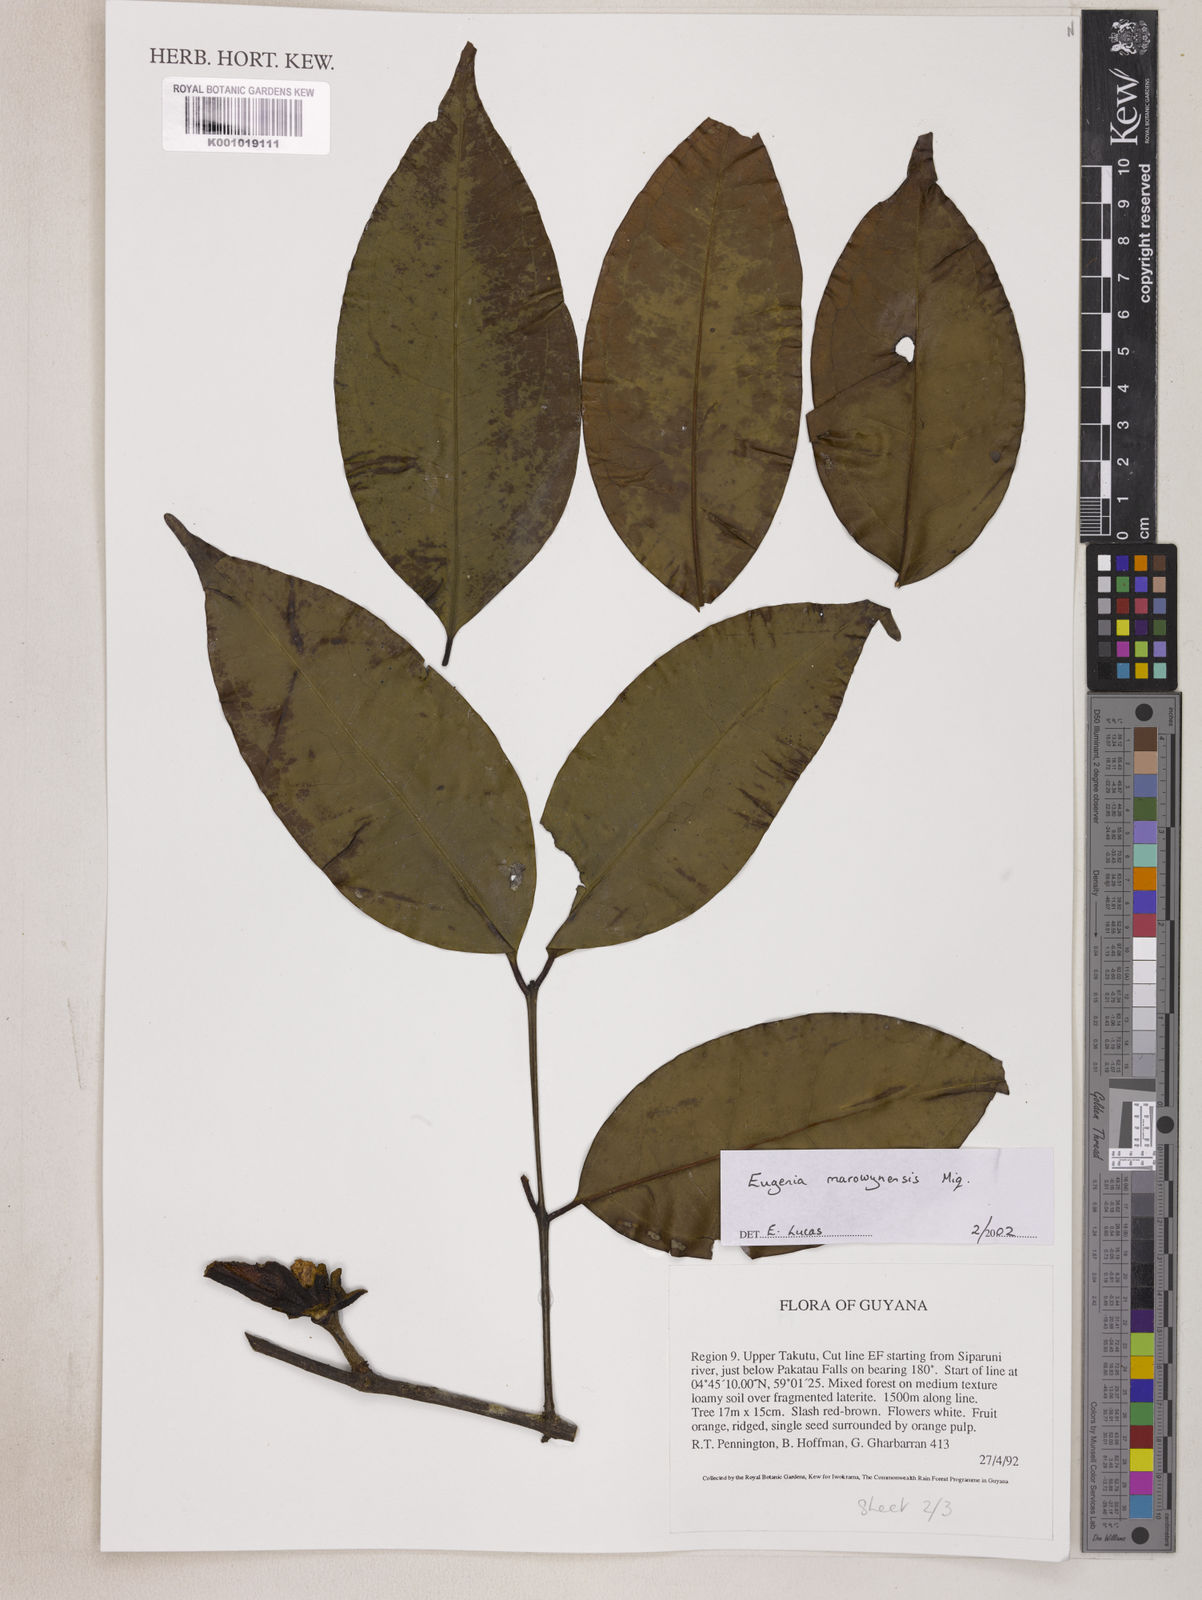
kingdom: Plantae
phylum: Tracheophyta
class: Magnoliopsida
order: Myrtales
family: Myrtaceae
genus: Eugenia
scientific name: Eugenia marowynensis
